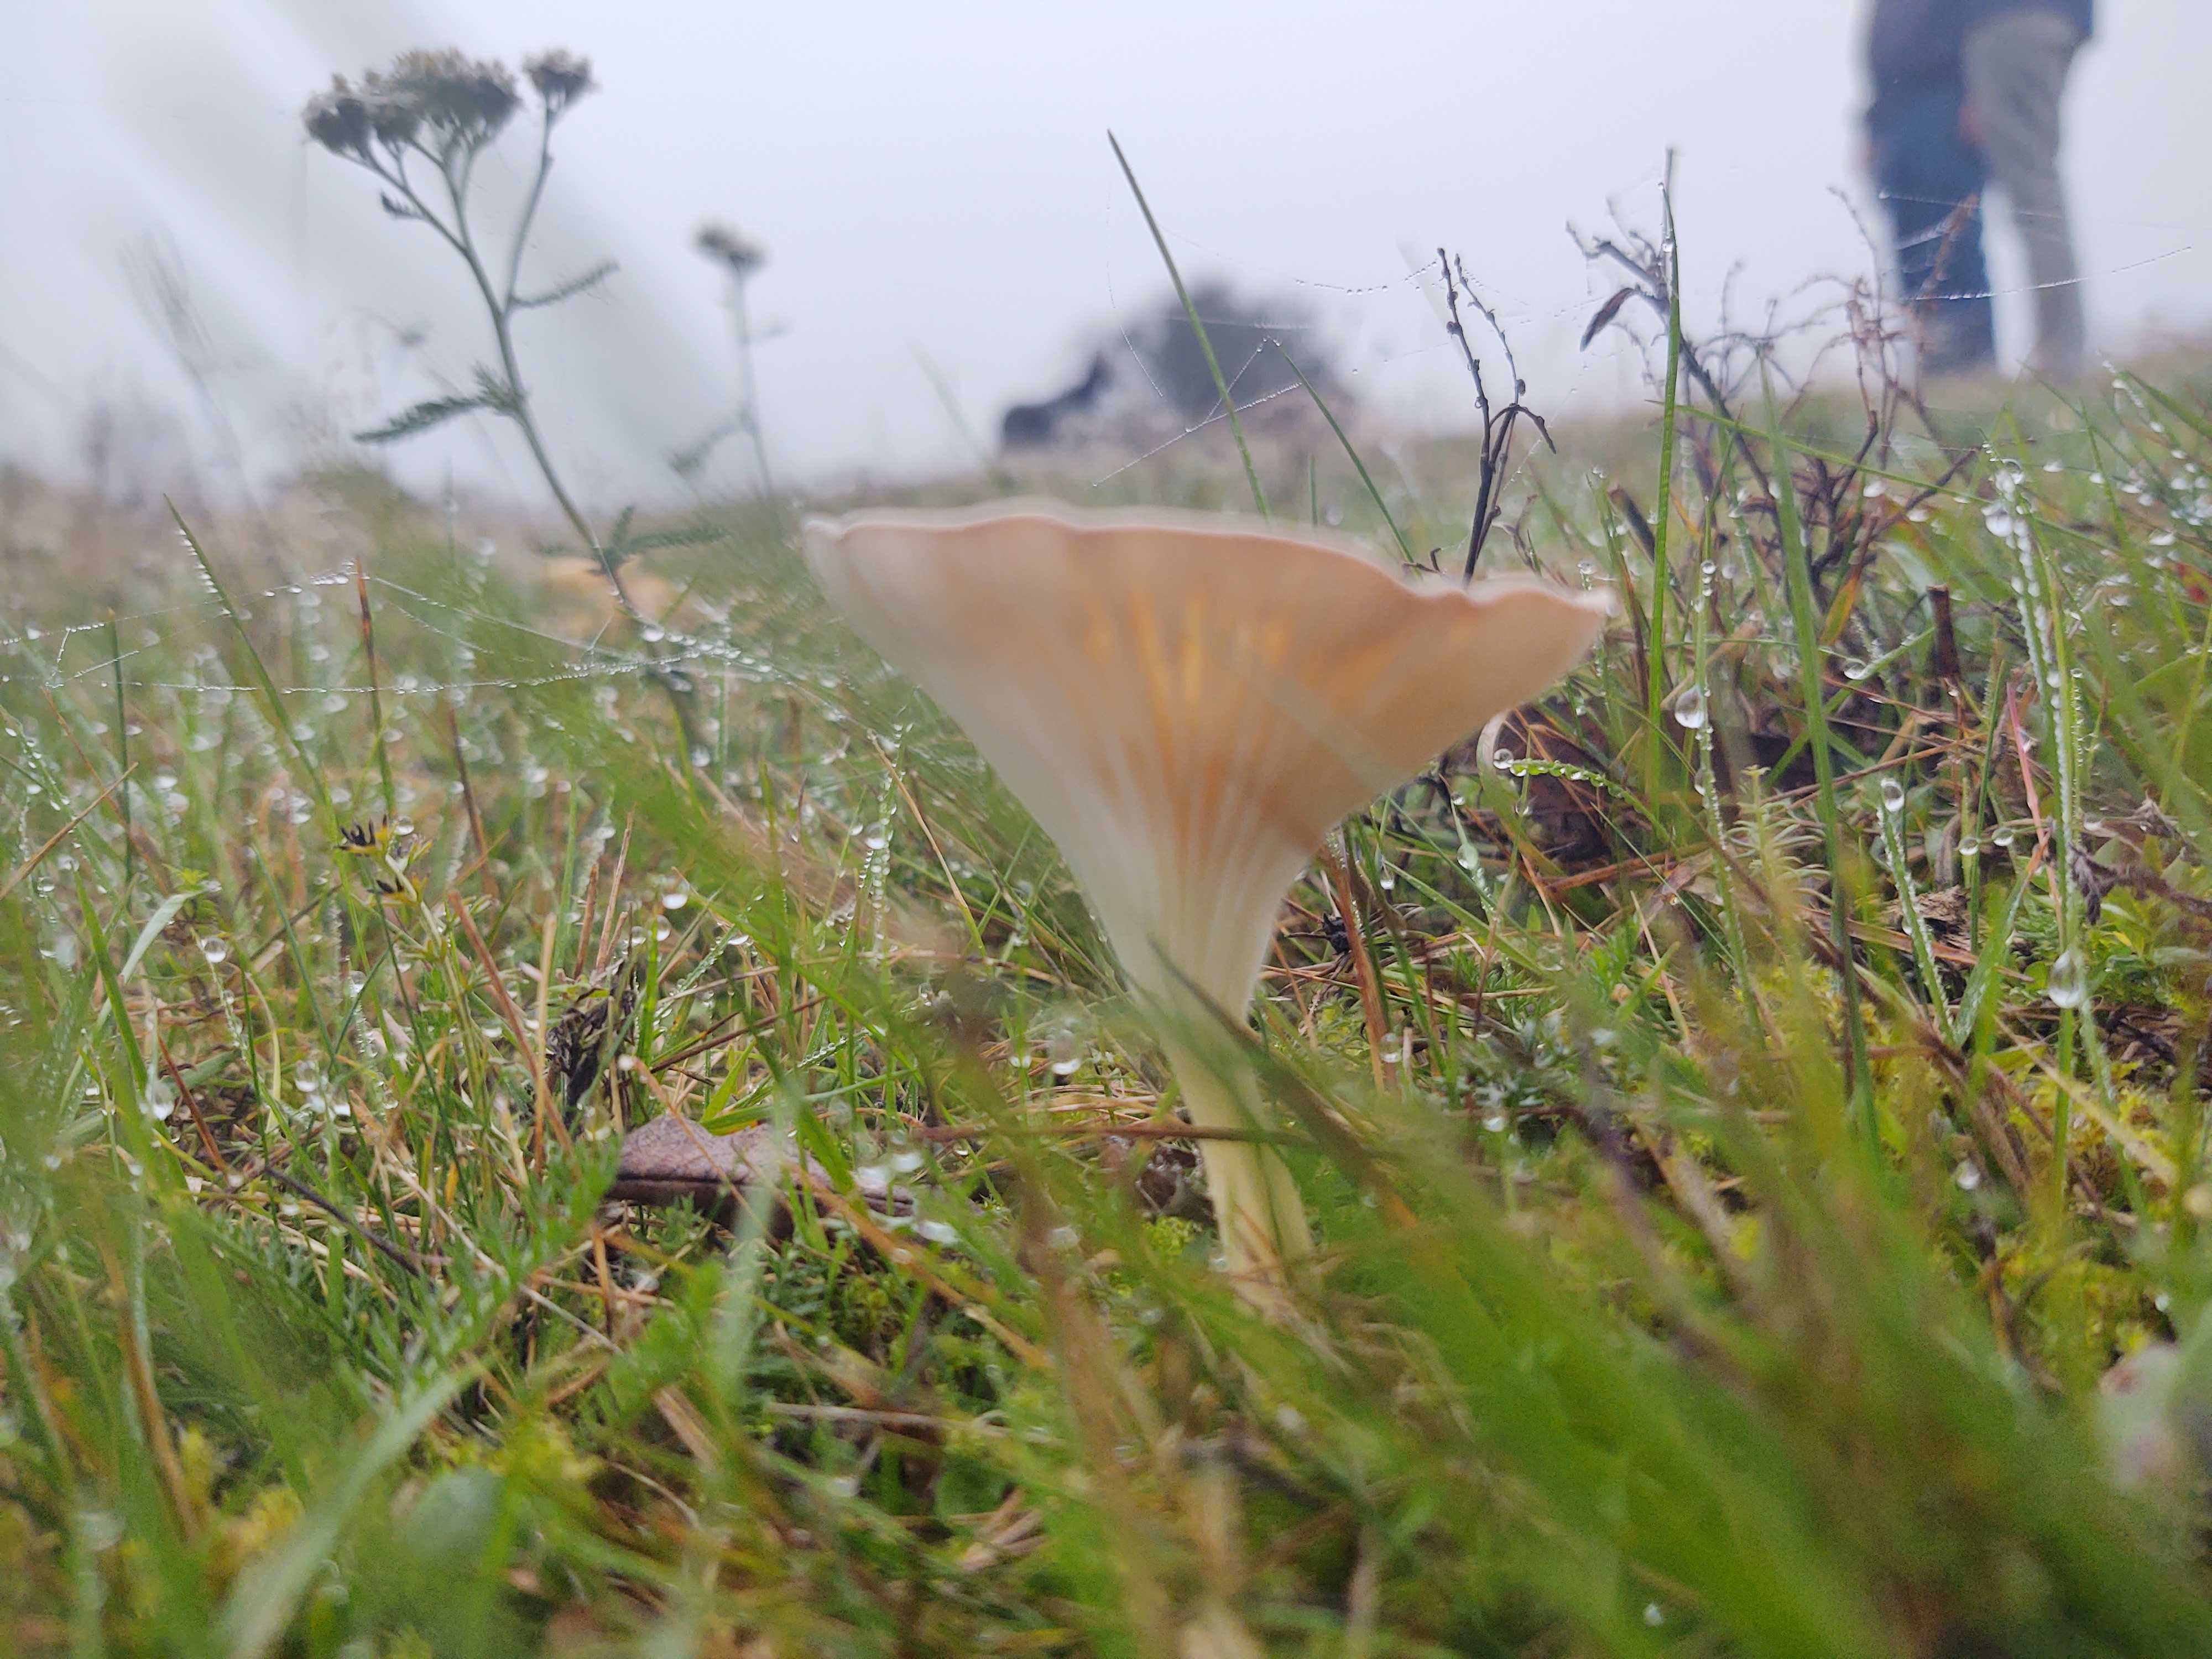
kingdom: Fungi
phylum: Basidiomycota
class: Agaricomycetes
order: Agaricales
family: Tricholomataceae
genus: Clitocybe
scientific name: Clitocybe
